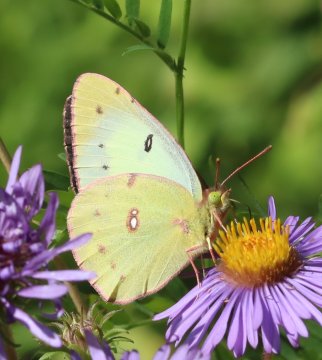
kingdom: Animalia
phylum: Arthropoda
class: Insecta
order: Lepidoptera
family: Pieridae
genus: Colias
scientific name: Colias philodice
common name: Clouded Sulphur
